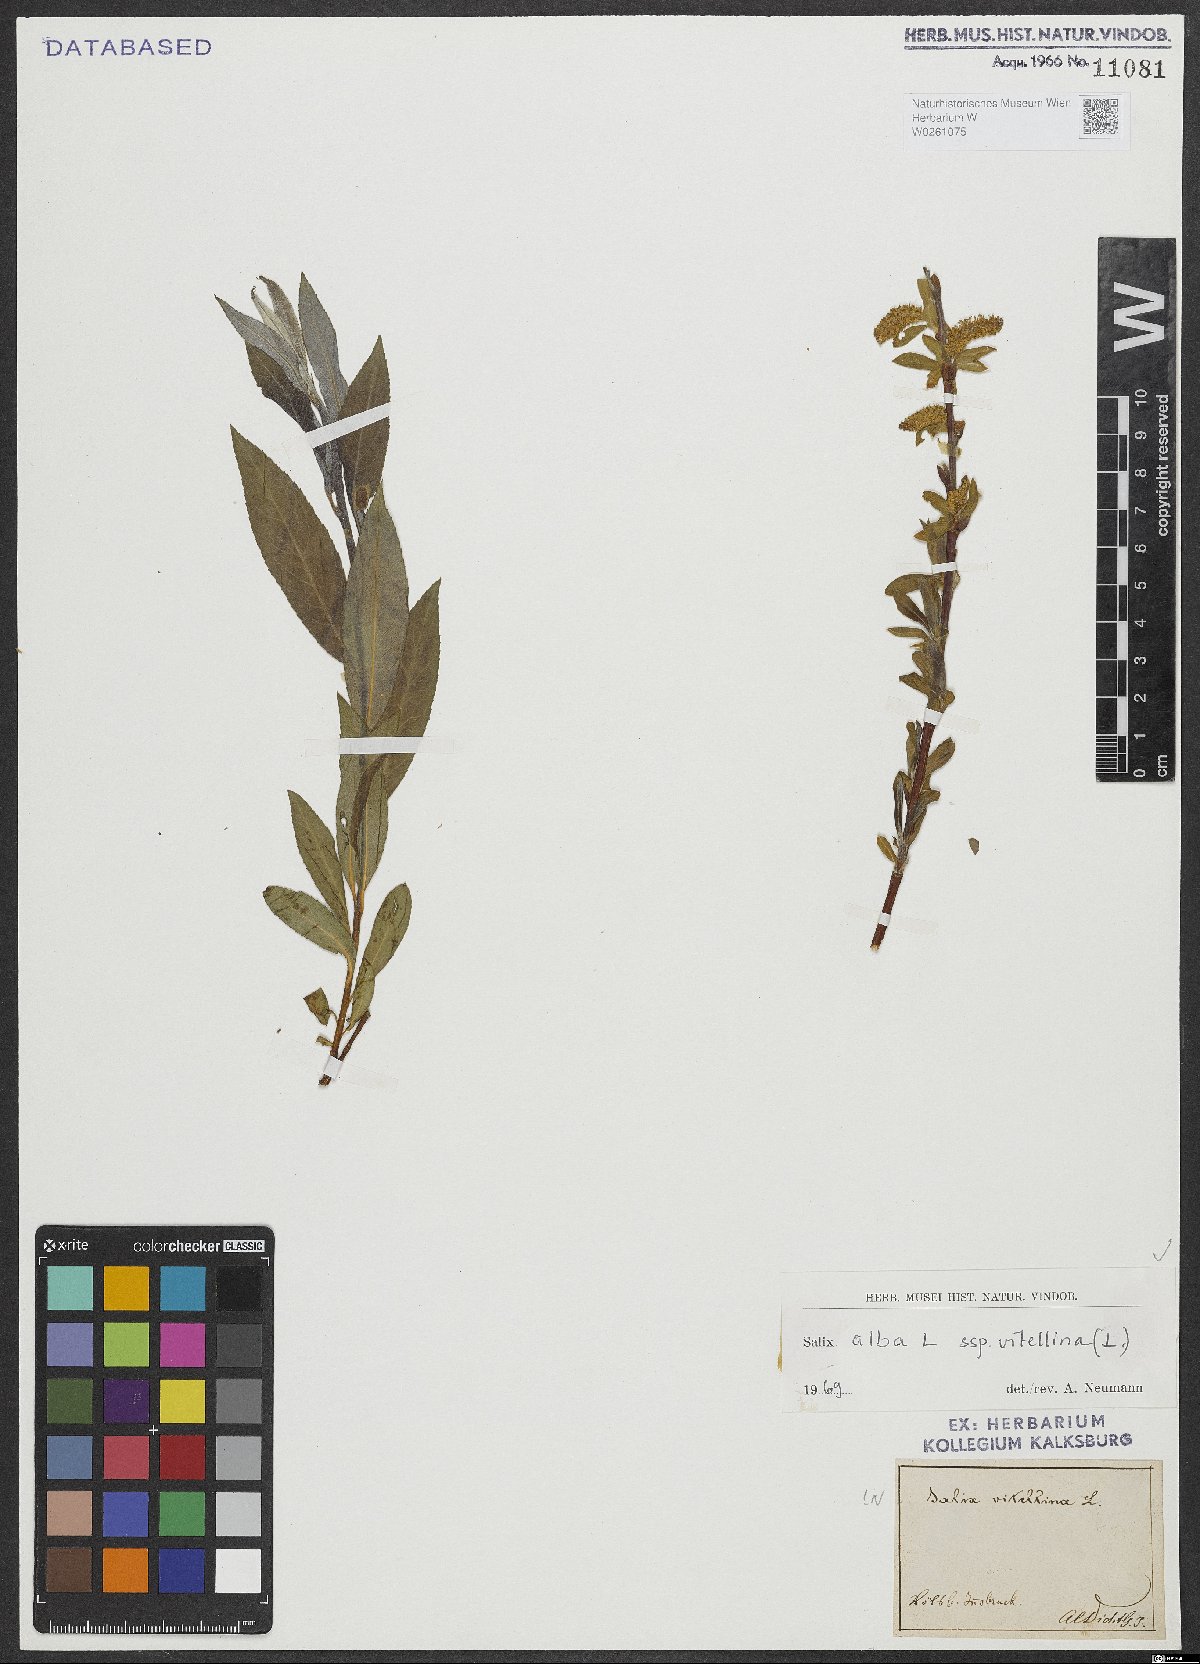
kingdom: Plantae
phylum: Tracheophyta
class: Magnoliopsida
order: Malpighiales
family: Salicaceae
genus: Salix
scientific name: Salix alba
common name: White willow
